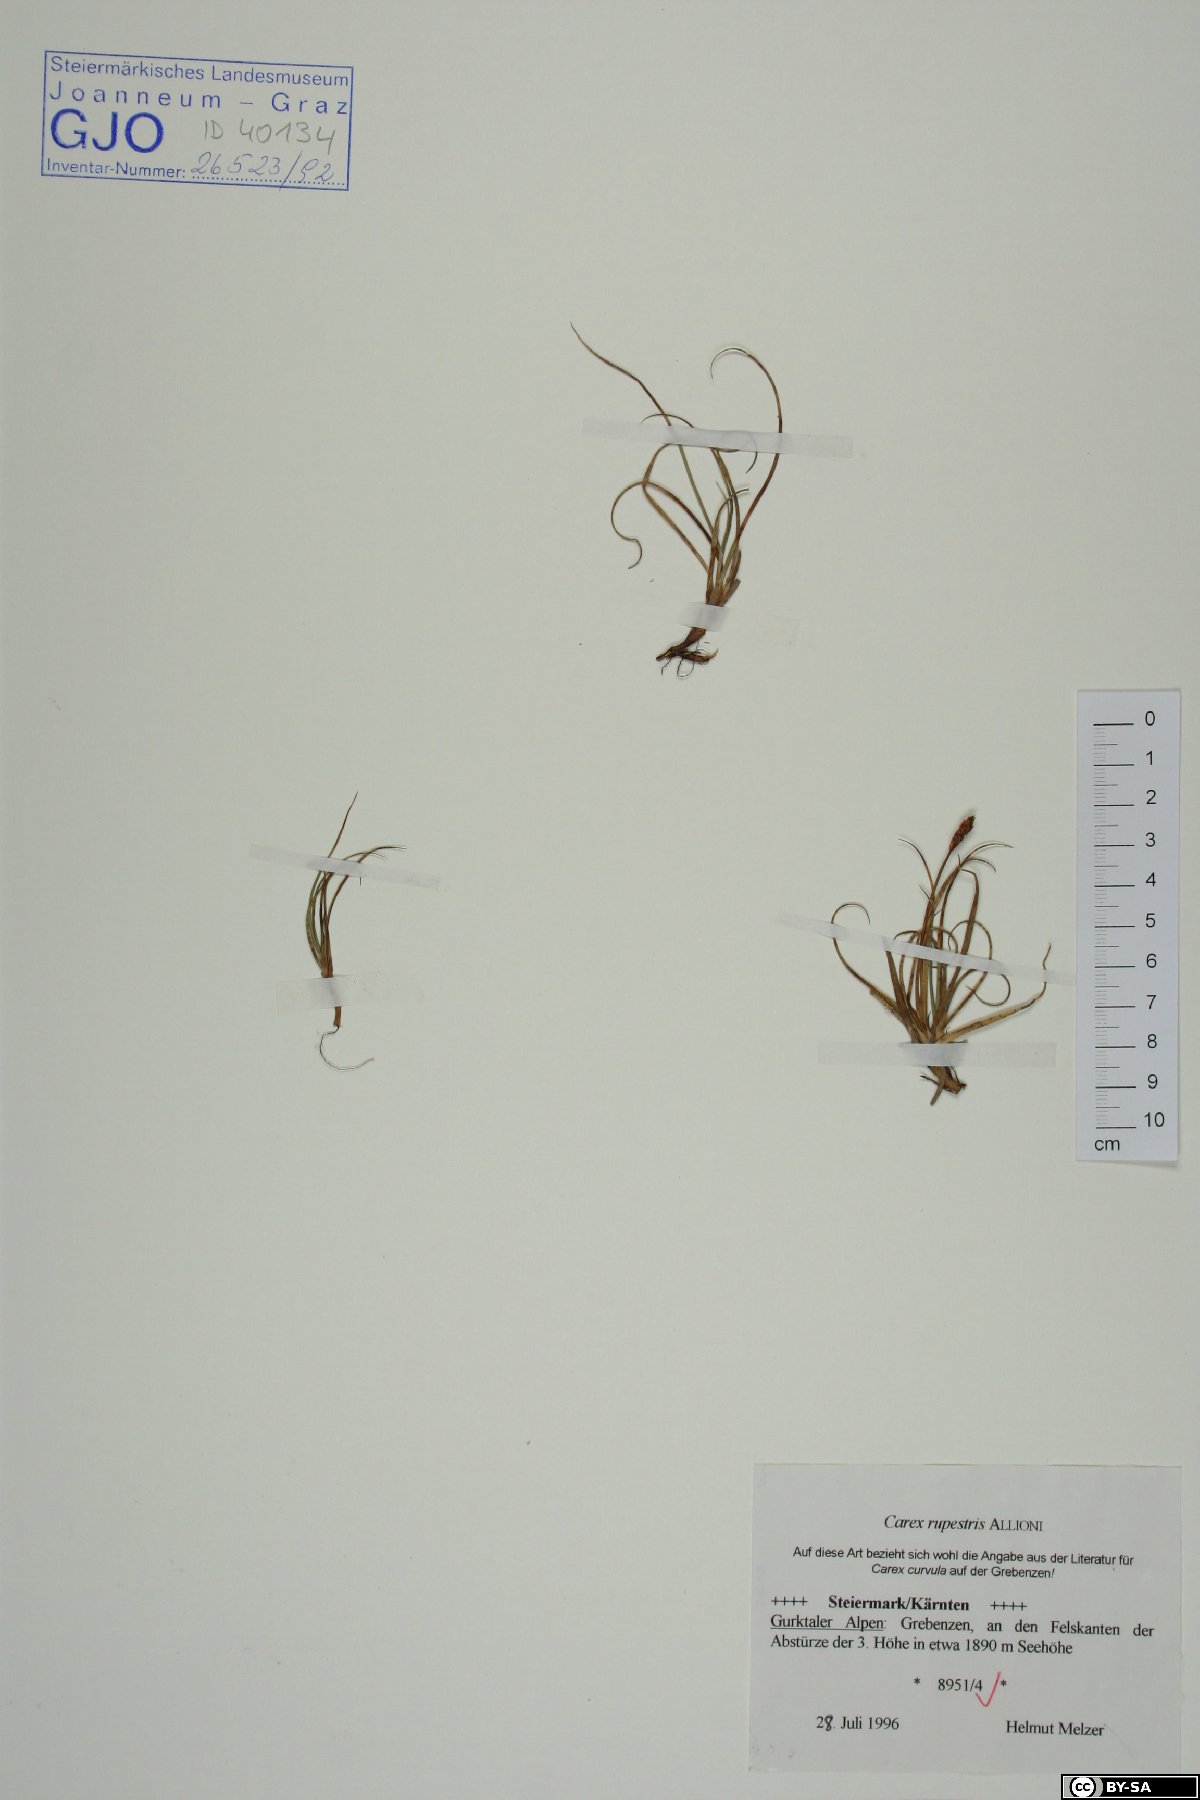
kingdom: Plantae
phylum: Tracheophyta
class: Liliopsida
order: Poales
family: Cyperaceae
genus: Carex
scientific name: Carex rupestris
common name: Rock sedge
